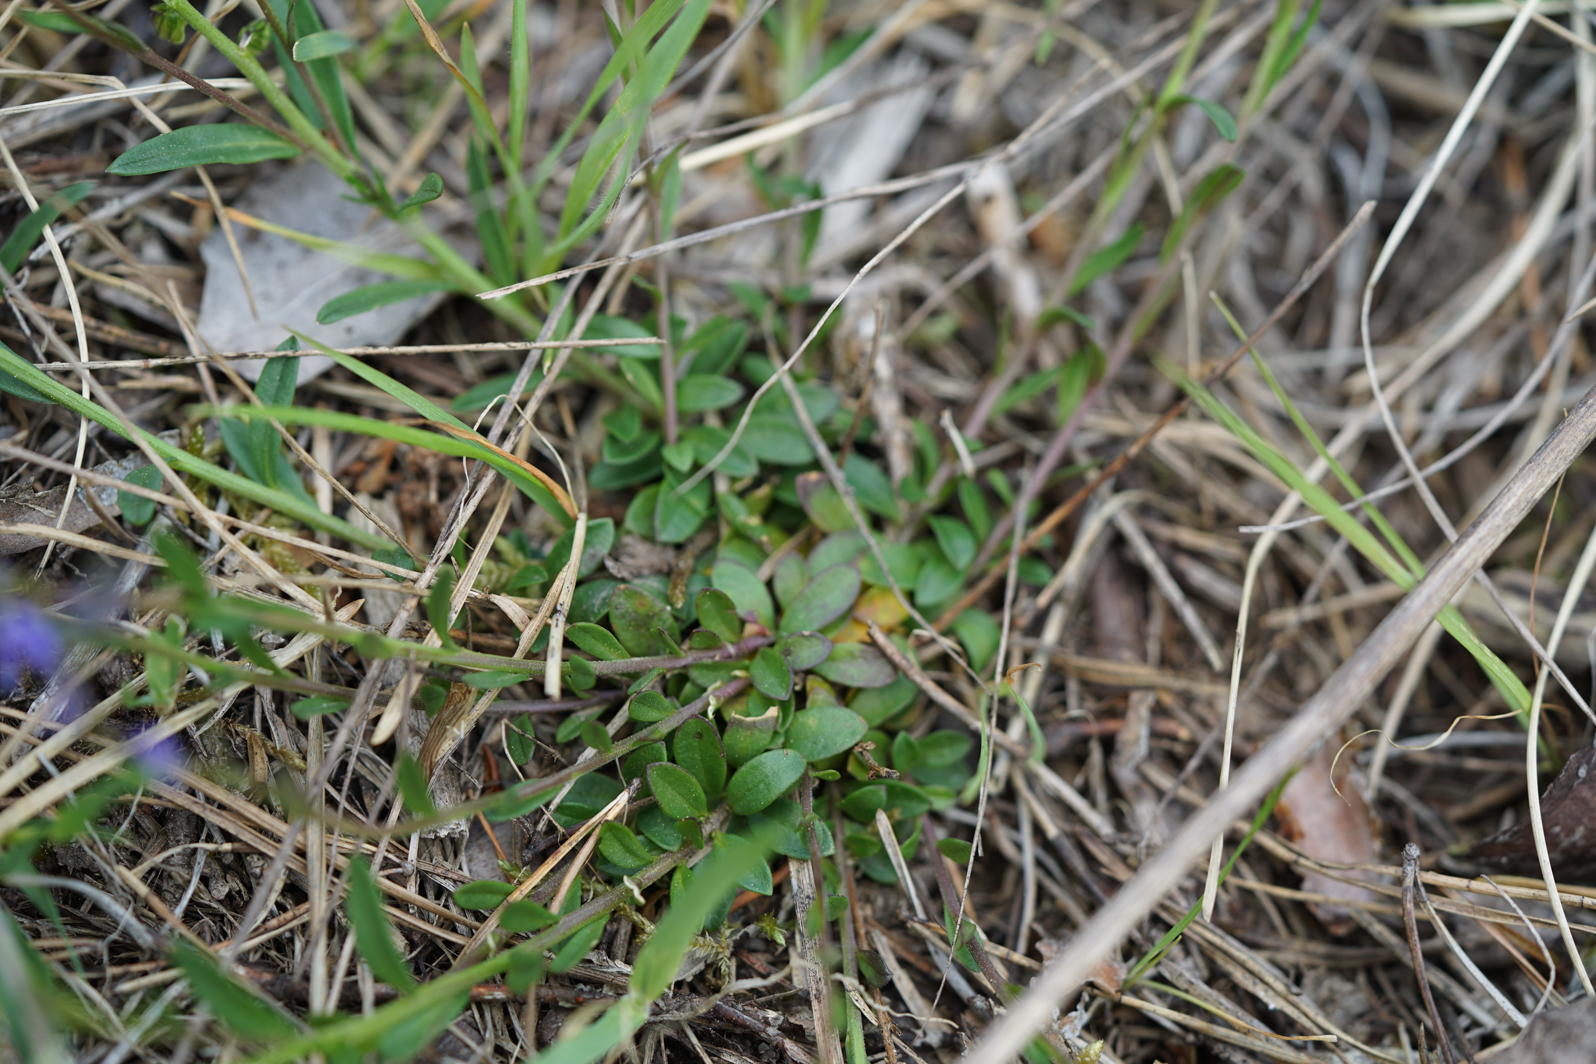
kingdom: Plantae
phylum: Tracheophyta
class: Magnoliopsida
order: Fabales
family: Polygalaceae
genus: Polygala
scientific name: Polygala vulgaris
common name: Common milkwort
